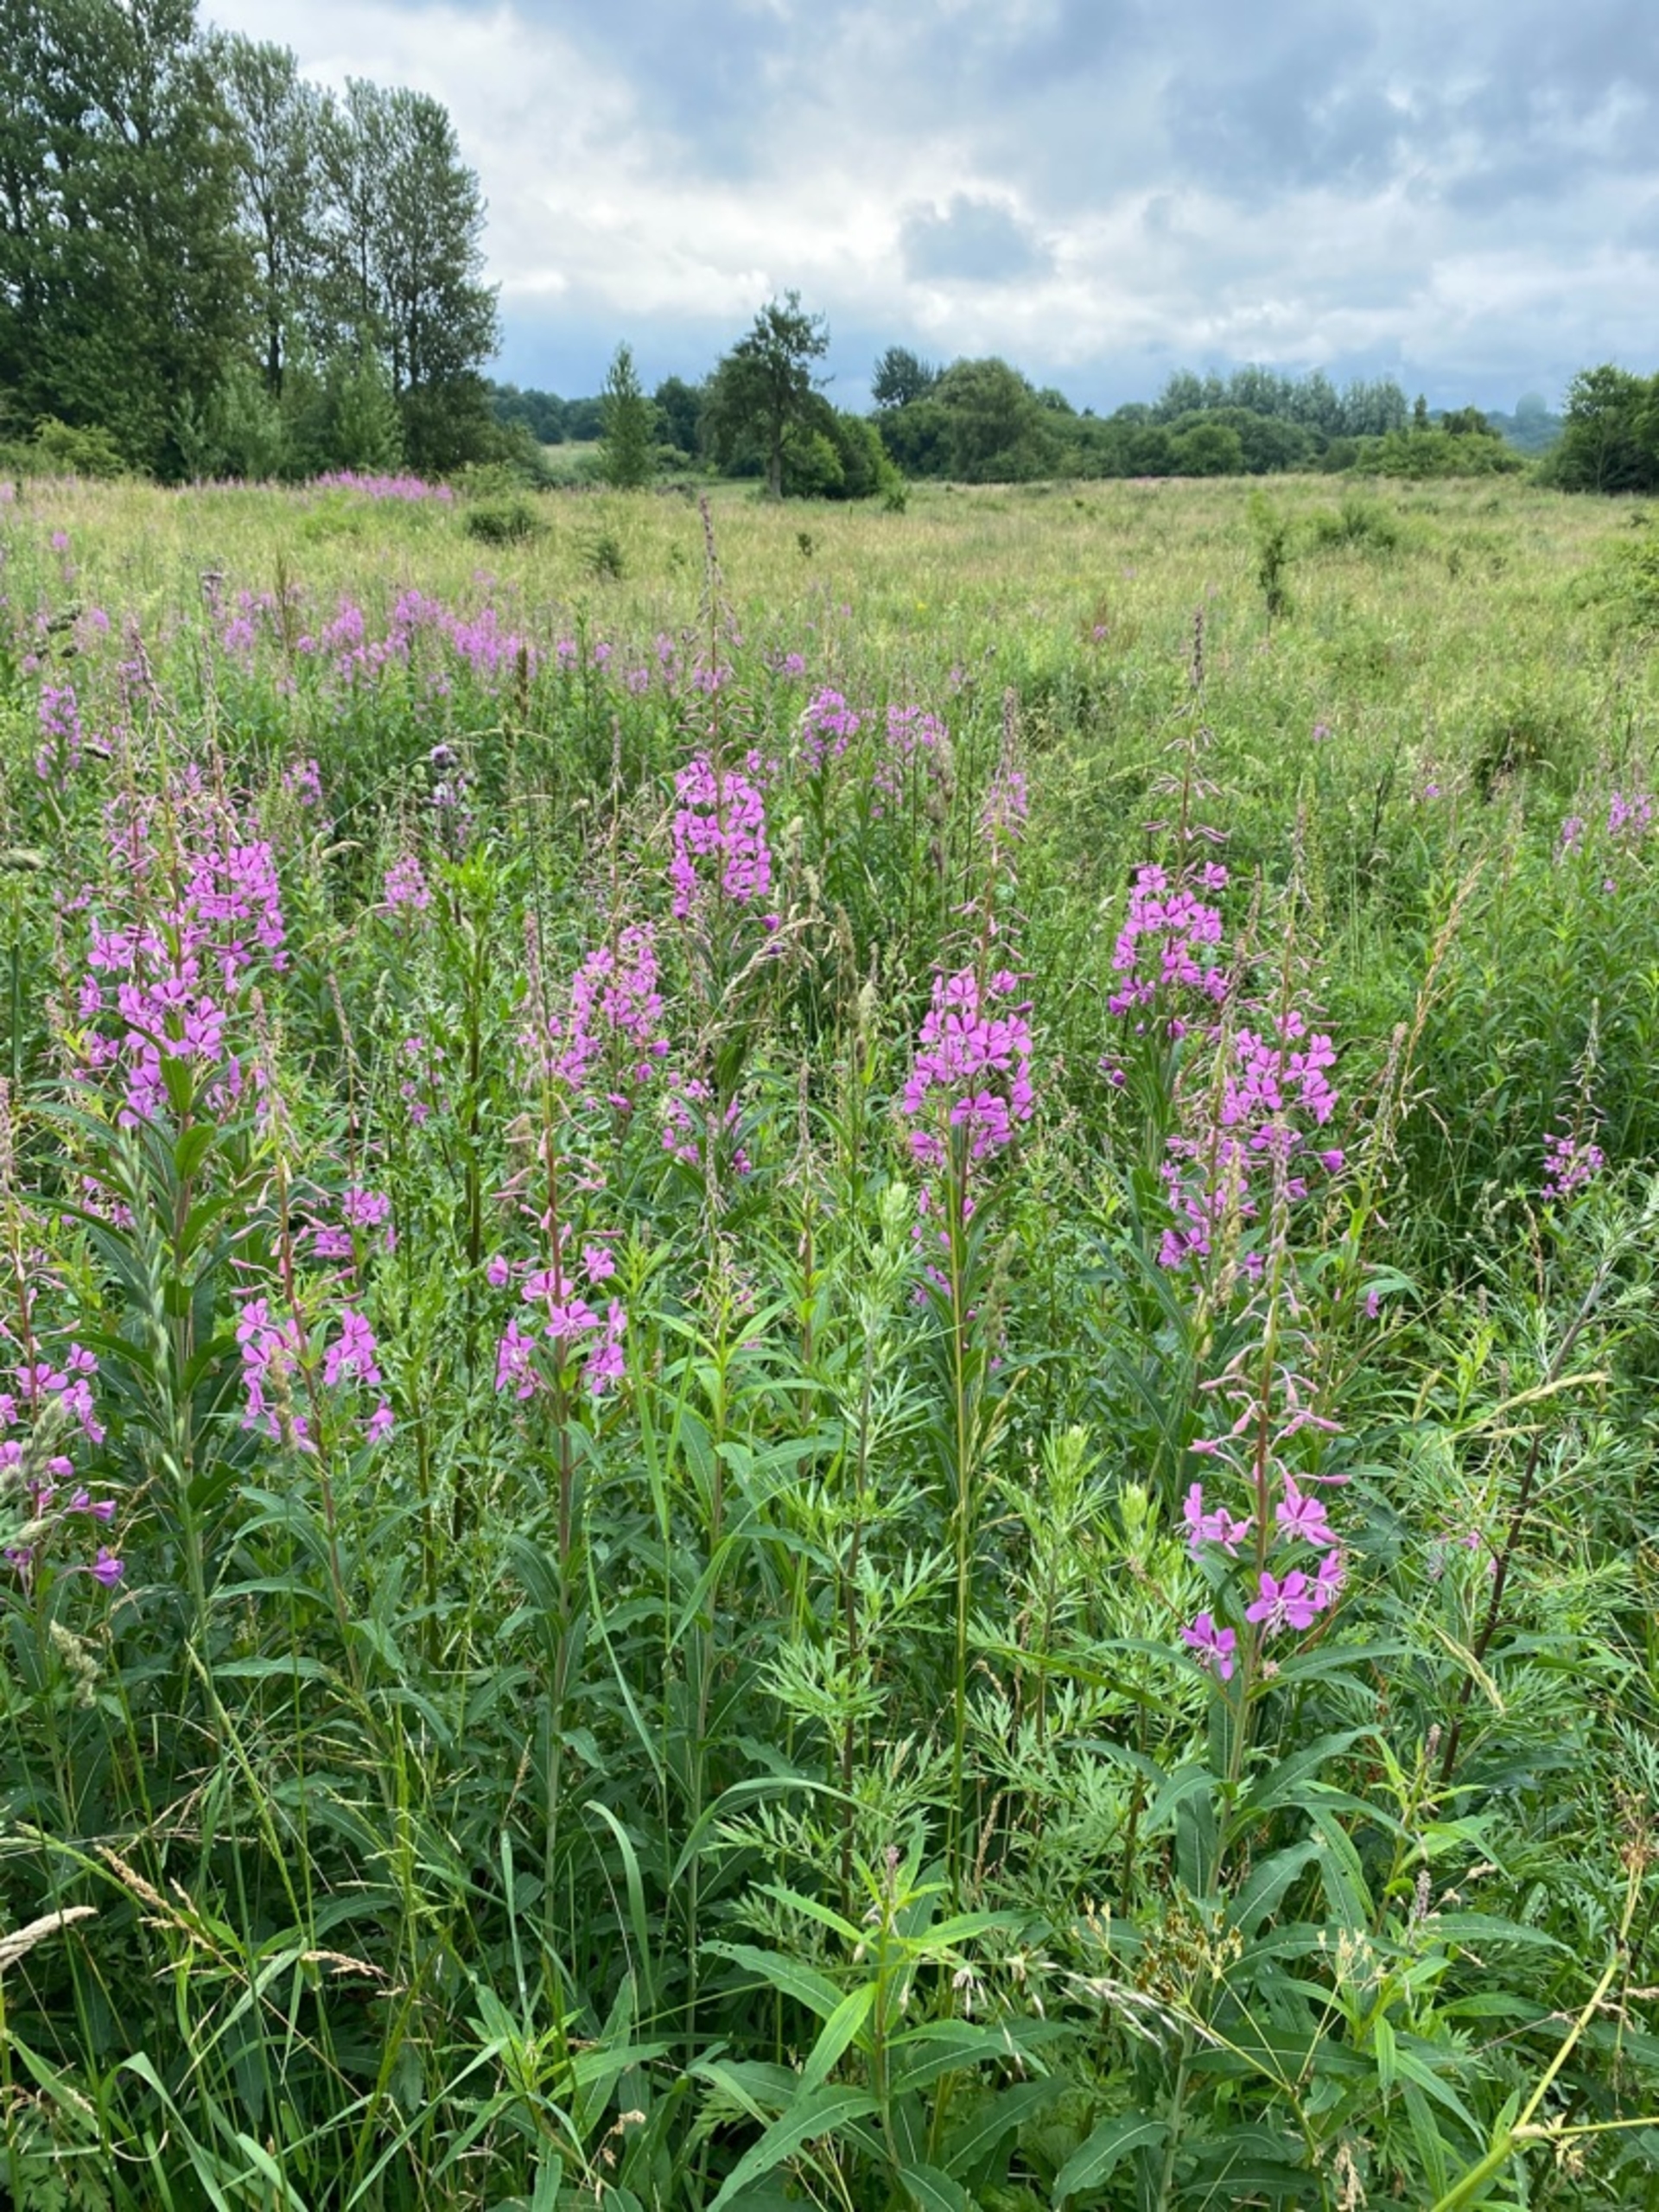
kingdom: Plantae
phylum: Tracheophyta
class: Magnoliopsida
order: Myrtales
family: Onagraceae
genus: Chamaenerion
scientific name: Chamaenerion angustifolium
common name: Gederams
